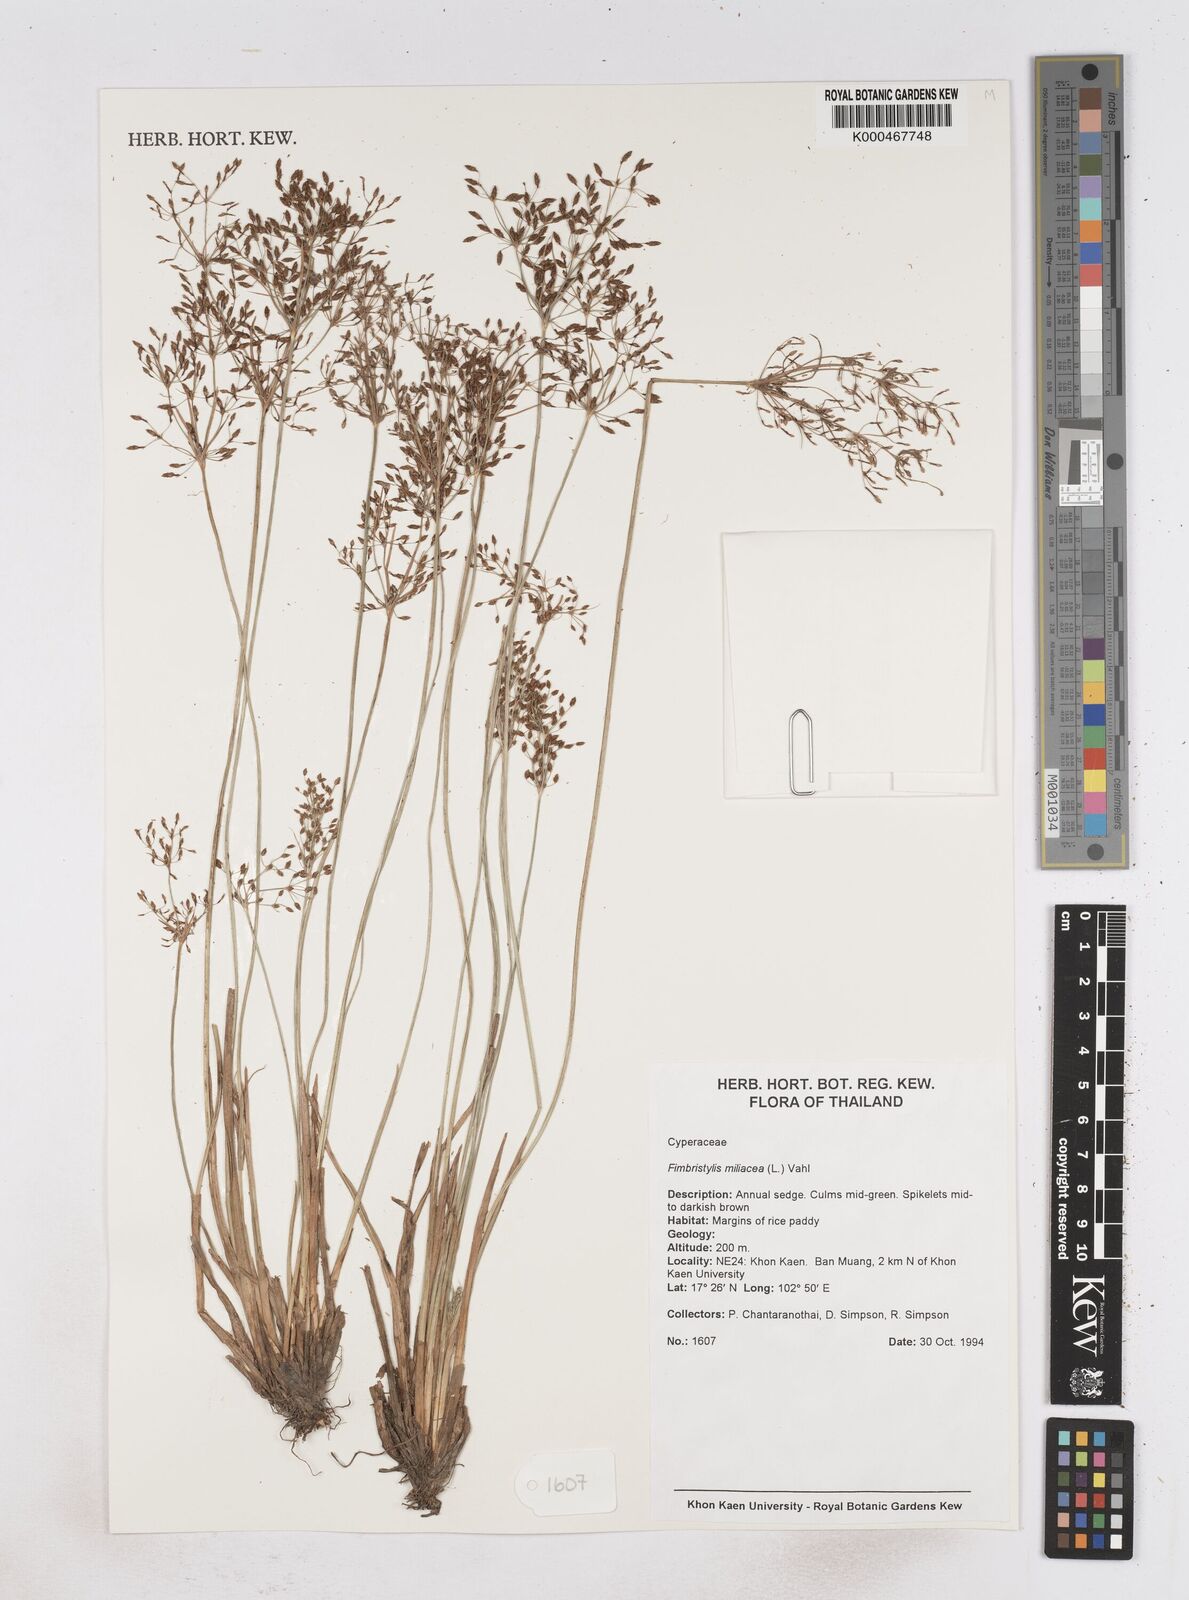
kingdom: Plantae
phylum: Tracheophyta
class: Liliopsida
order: Poales
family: Cyperaceae
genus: Fimbristylis
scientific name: Fimbristylis quinquangularis
